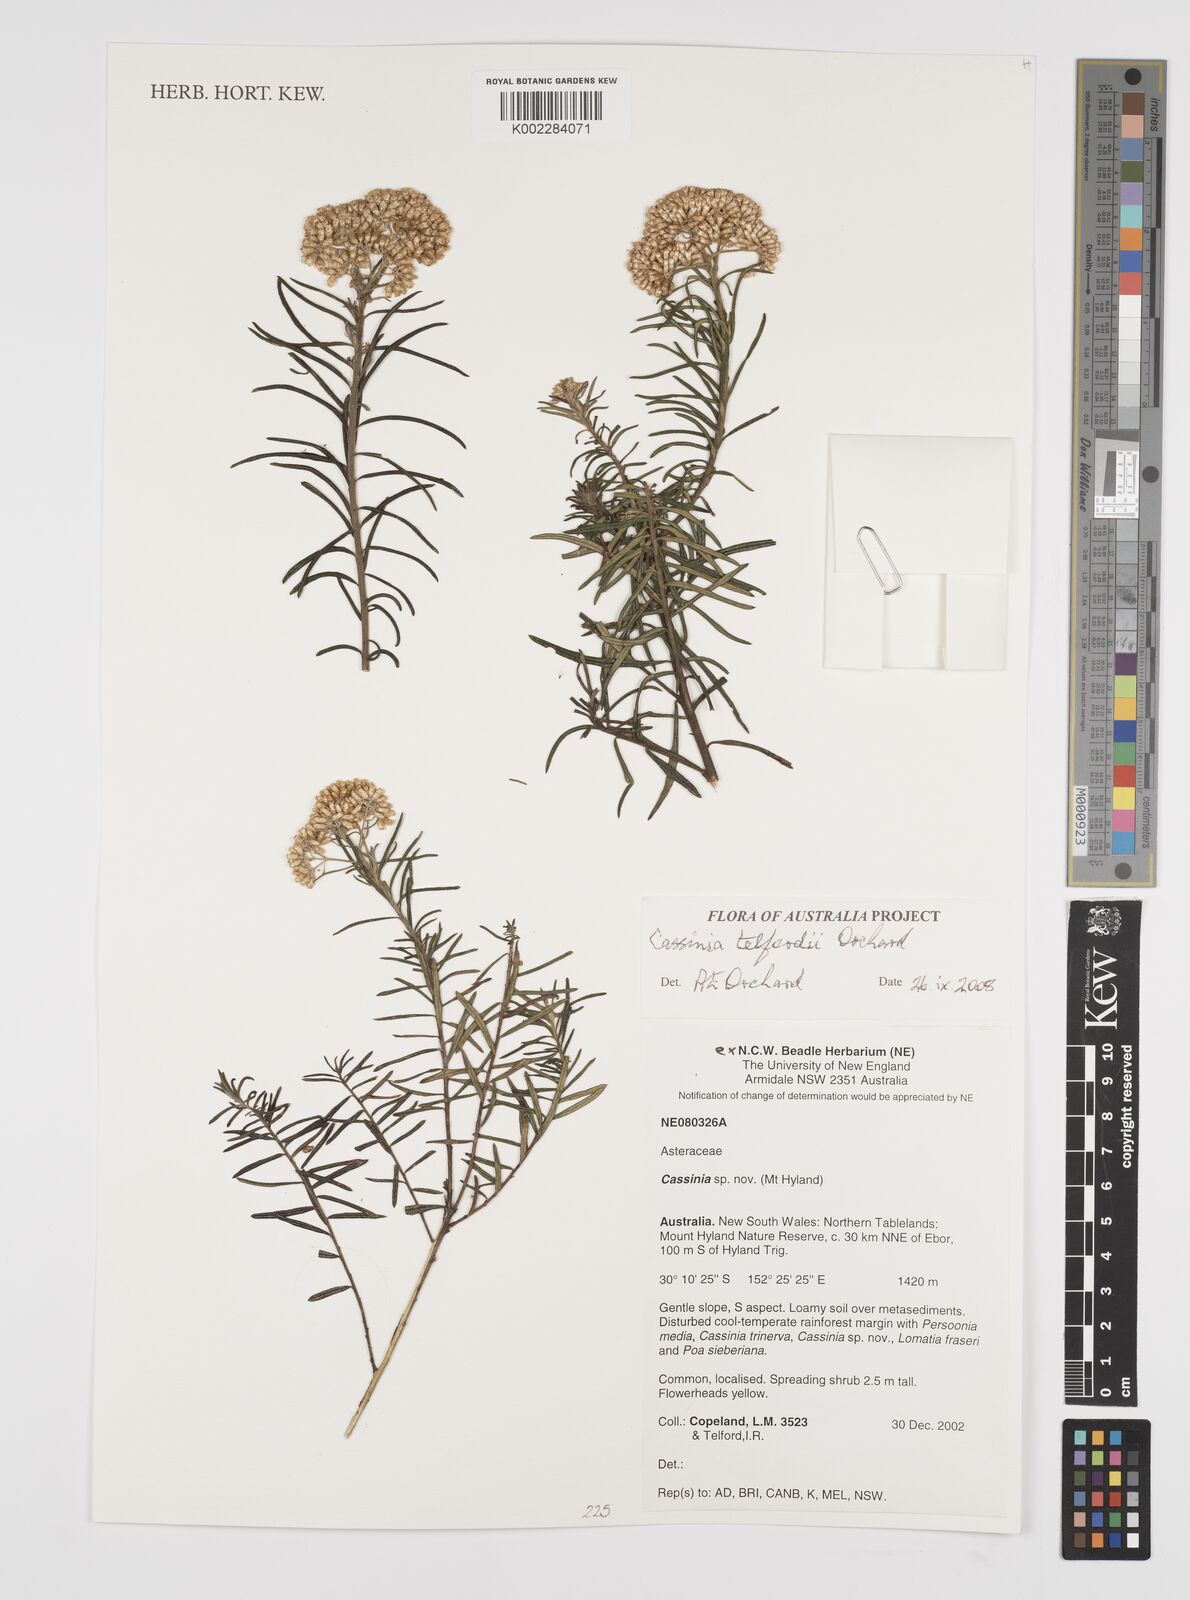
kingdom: Plantae
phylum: Tracheophyta
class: Magnoliopsida
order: Asterales
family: Asteraceae
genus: Cassinia
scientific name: Cassinia telfordii
